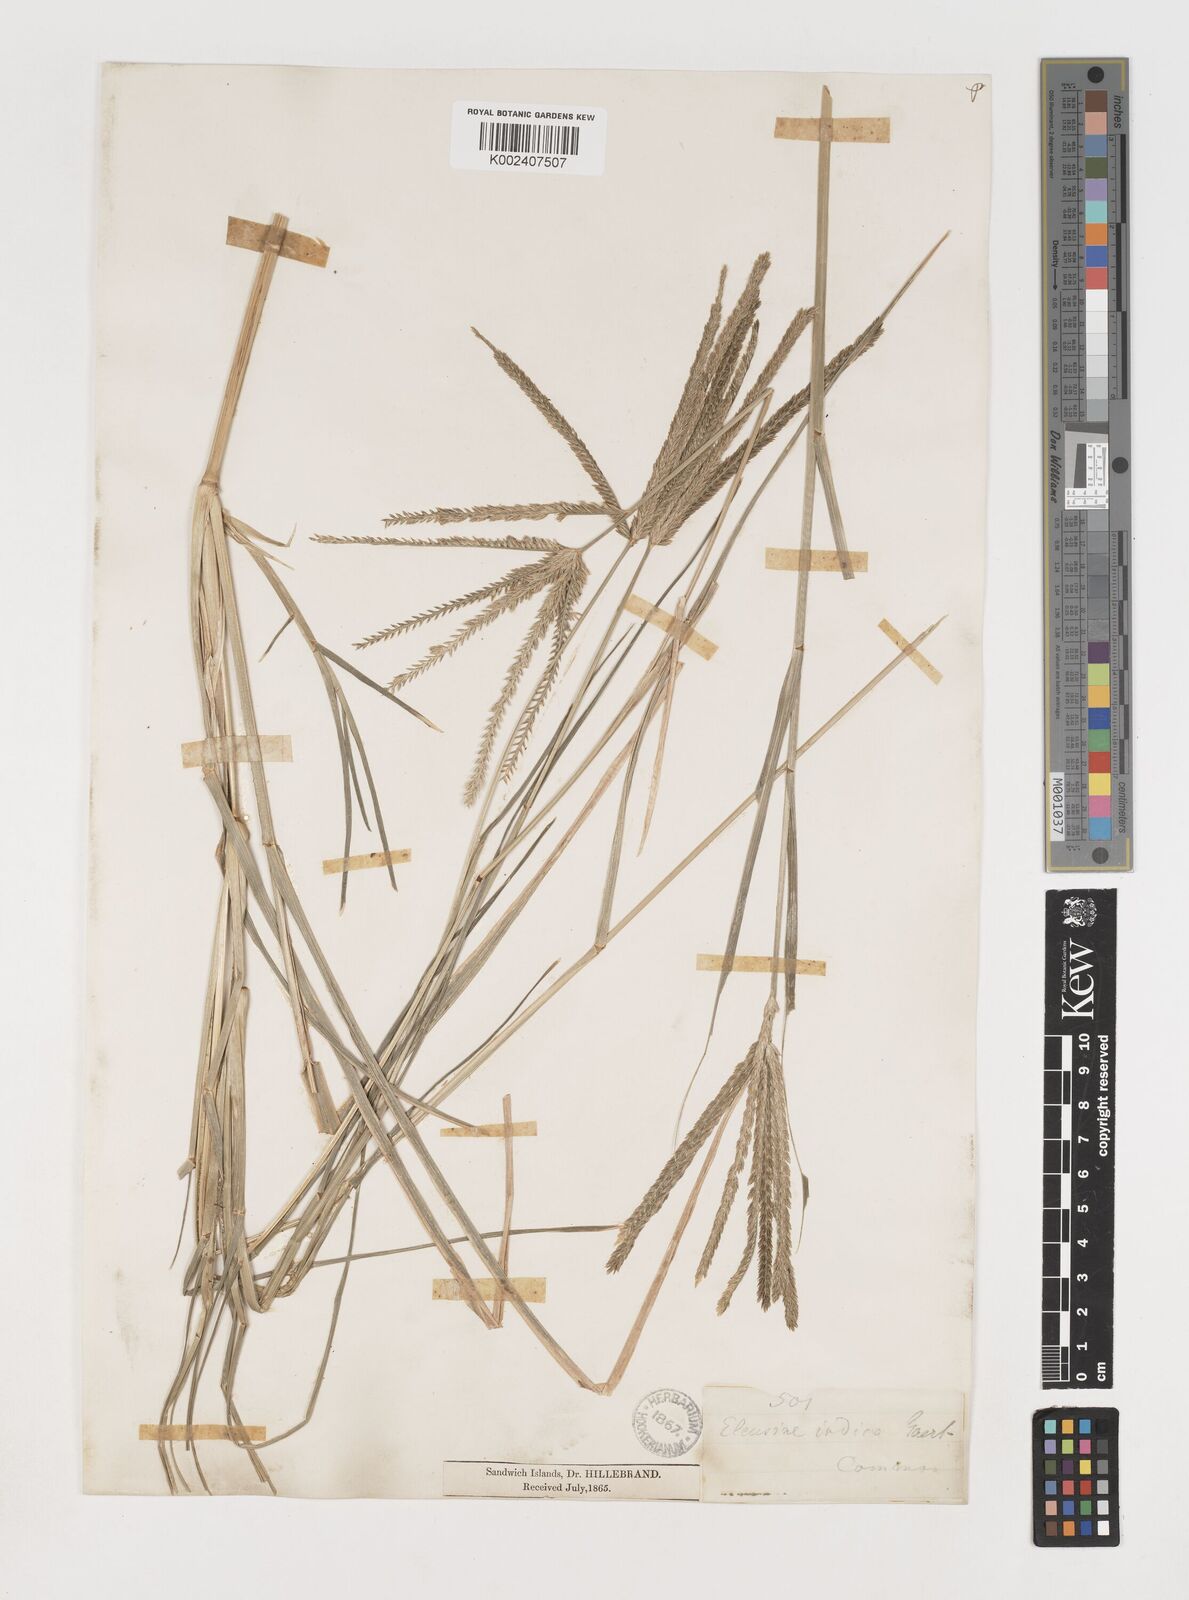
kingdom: Plantae
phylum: Tracheophyta
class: Liliopsida
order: Poales
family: Poaceae
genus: Eleusine
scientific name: Eleusine indica
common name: Yard-grass
